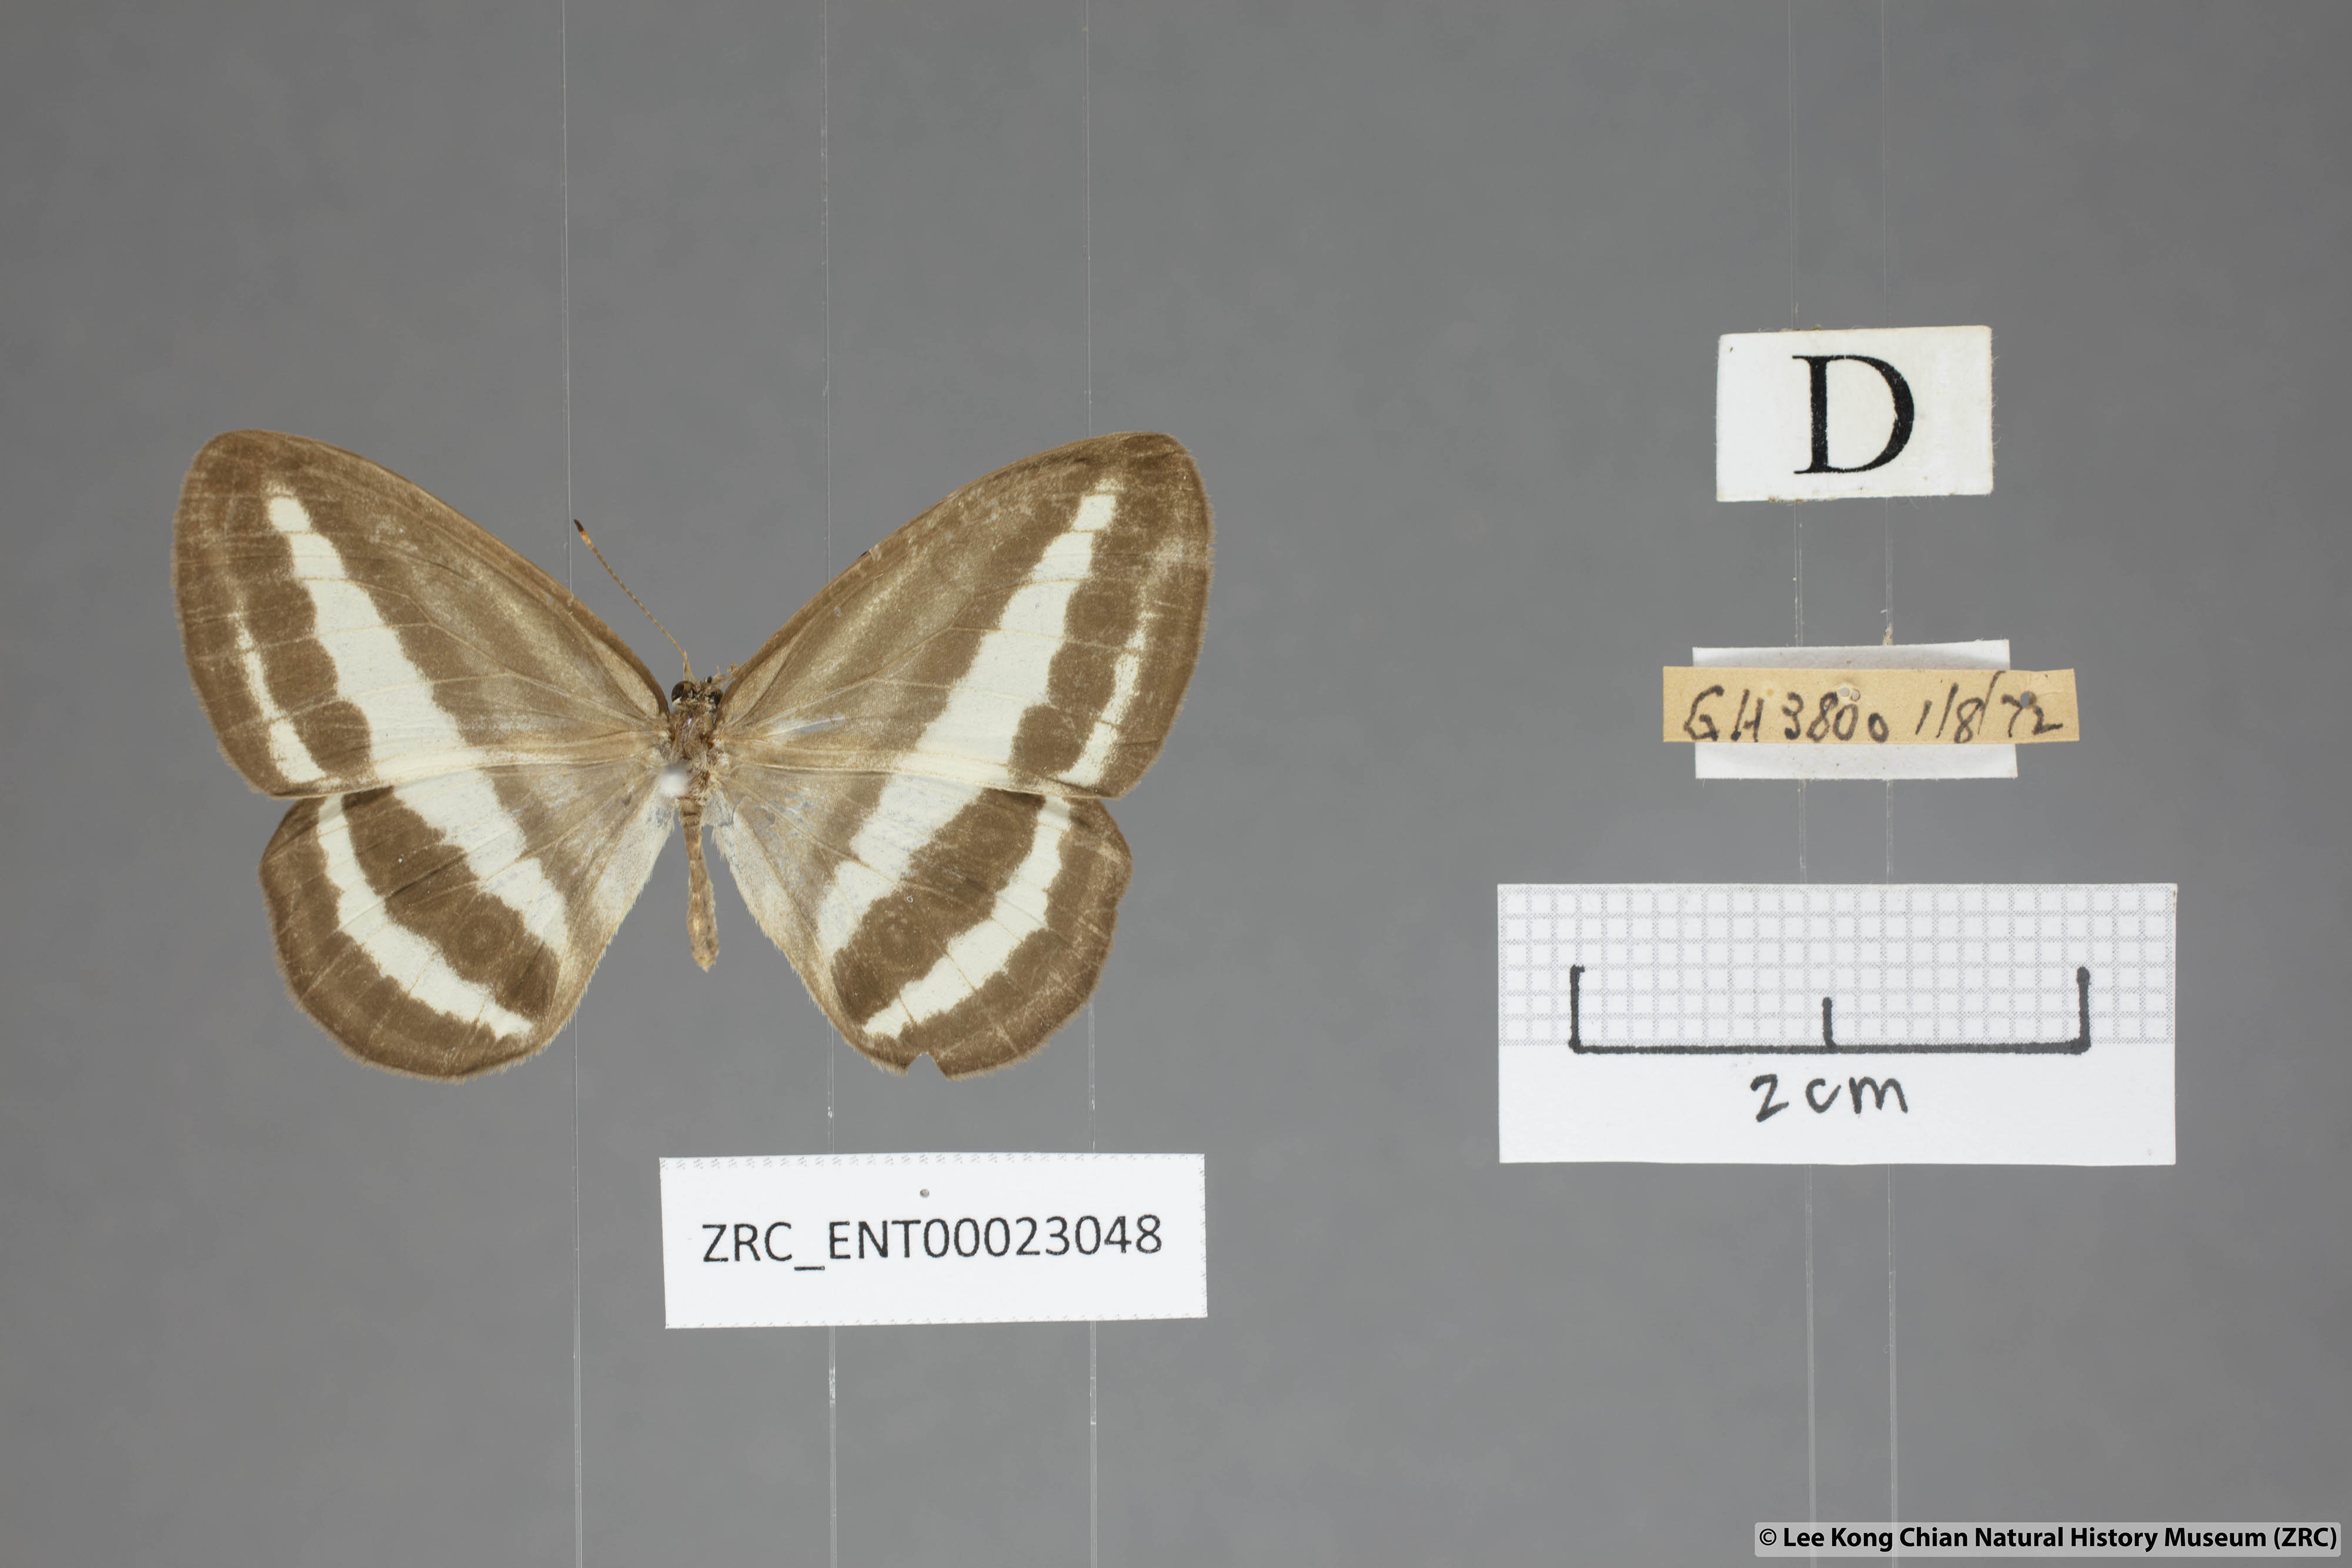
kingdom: Animalia
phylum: Arthropoda
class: Insecta
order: Lepidoptera
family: Nymphalidae
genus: Ragadia
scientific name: Ragadia crisilda
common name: White-striped ringlet
